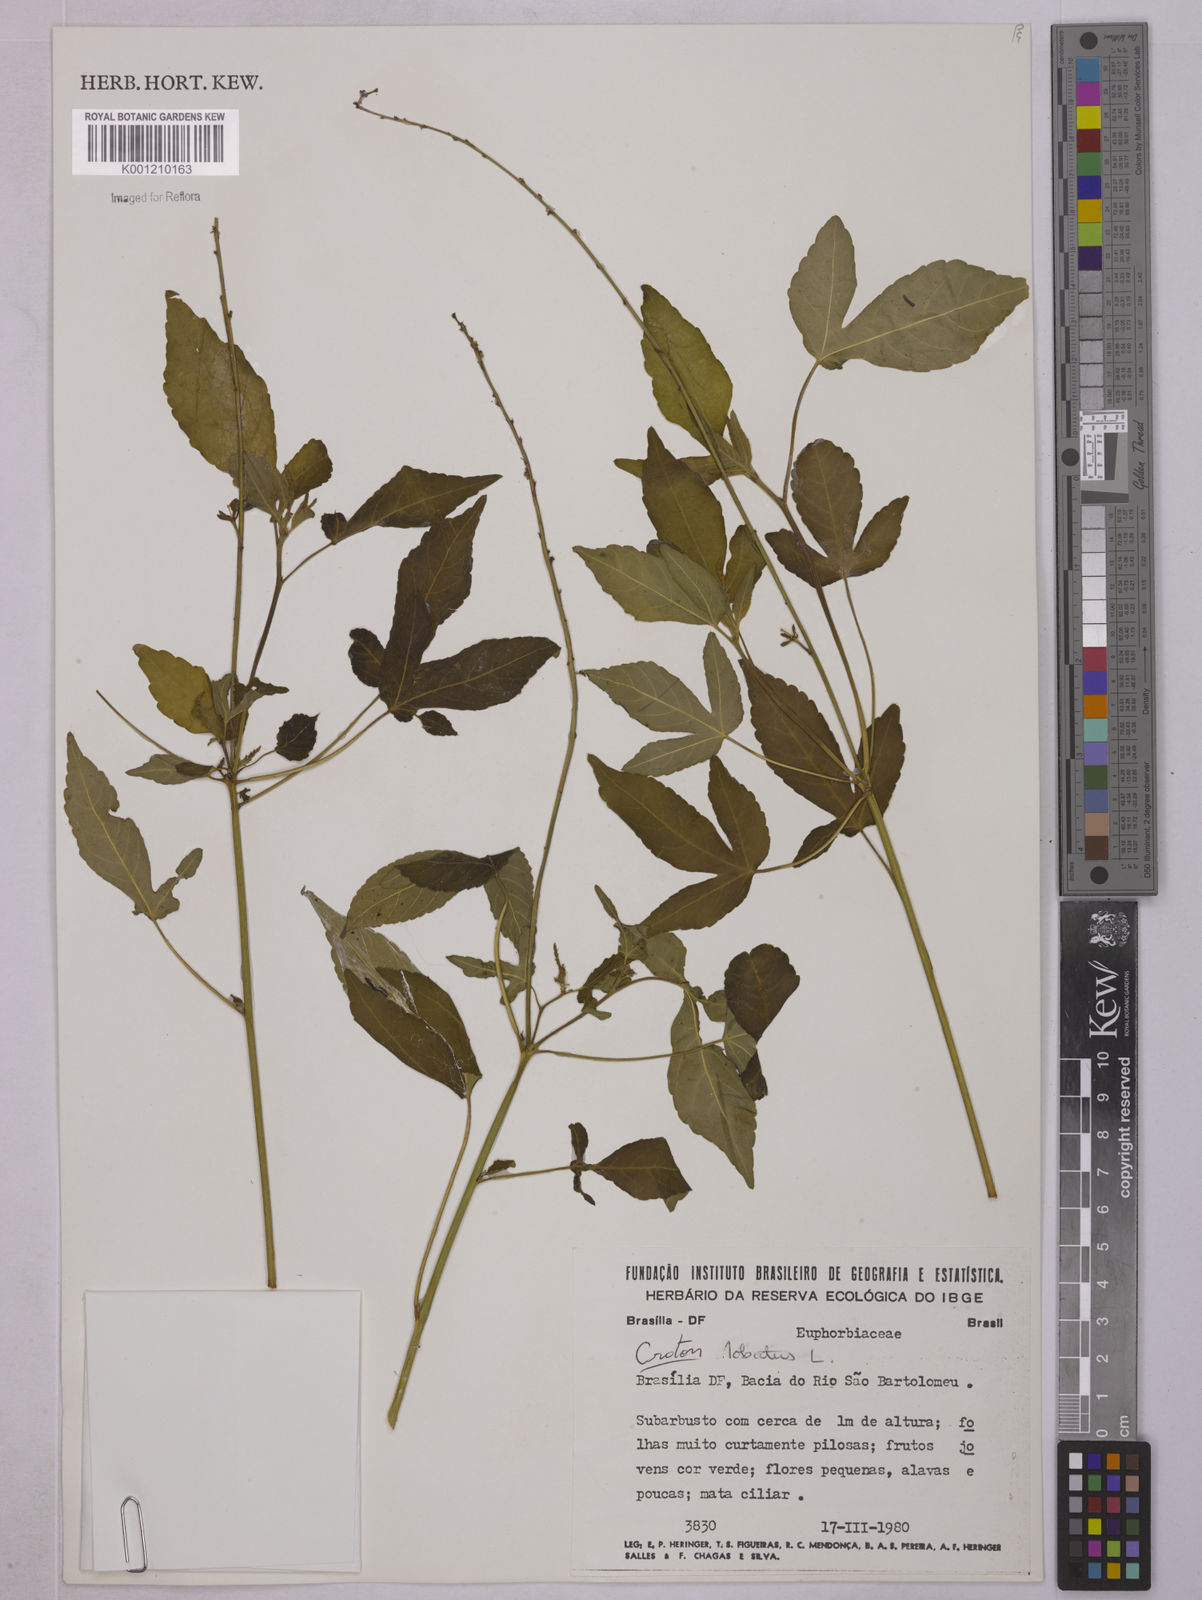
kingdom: Plantae
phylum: Tracheophyta
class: Magnoliopsida
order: Malpighiales
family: Euphorbiaceae
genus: Astraea
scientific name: Astraea lobata
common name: Lobed croton
